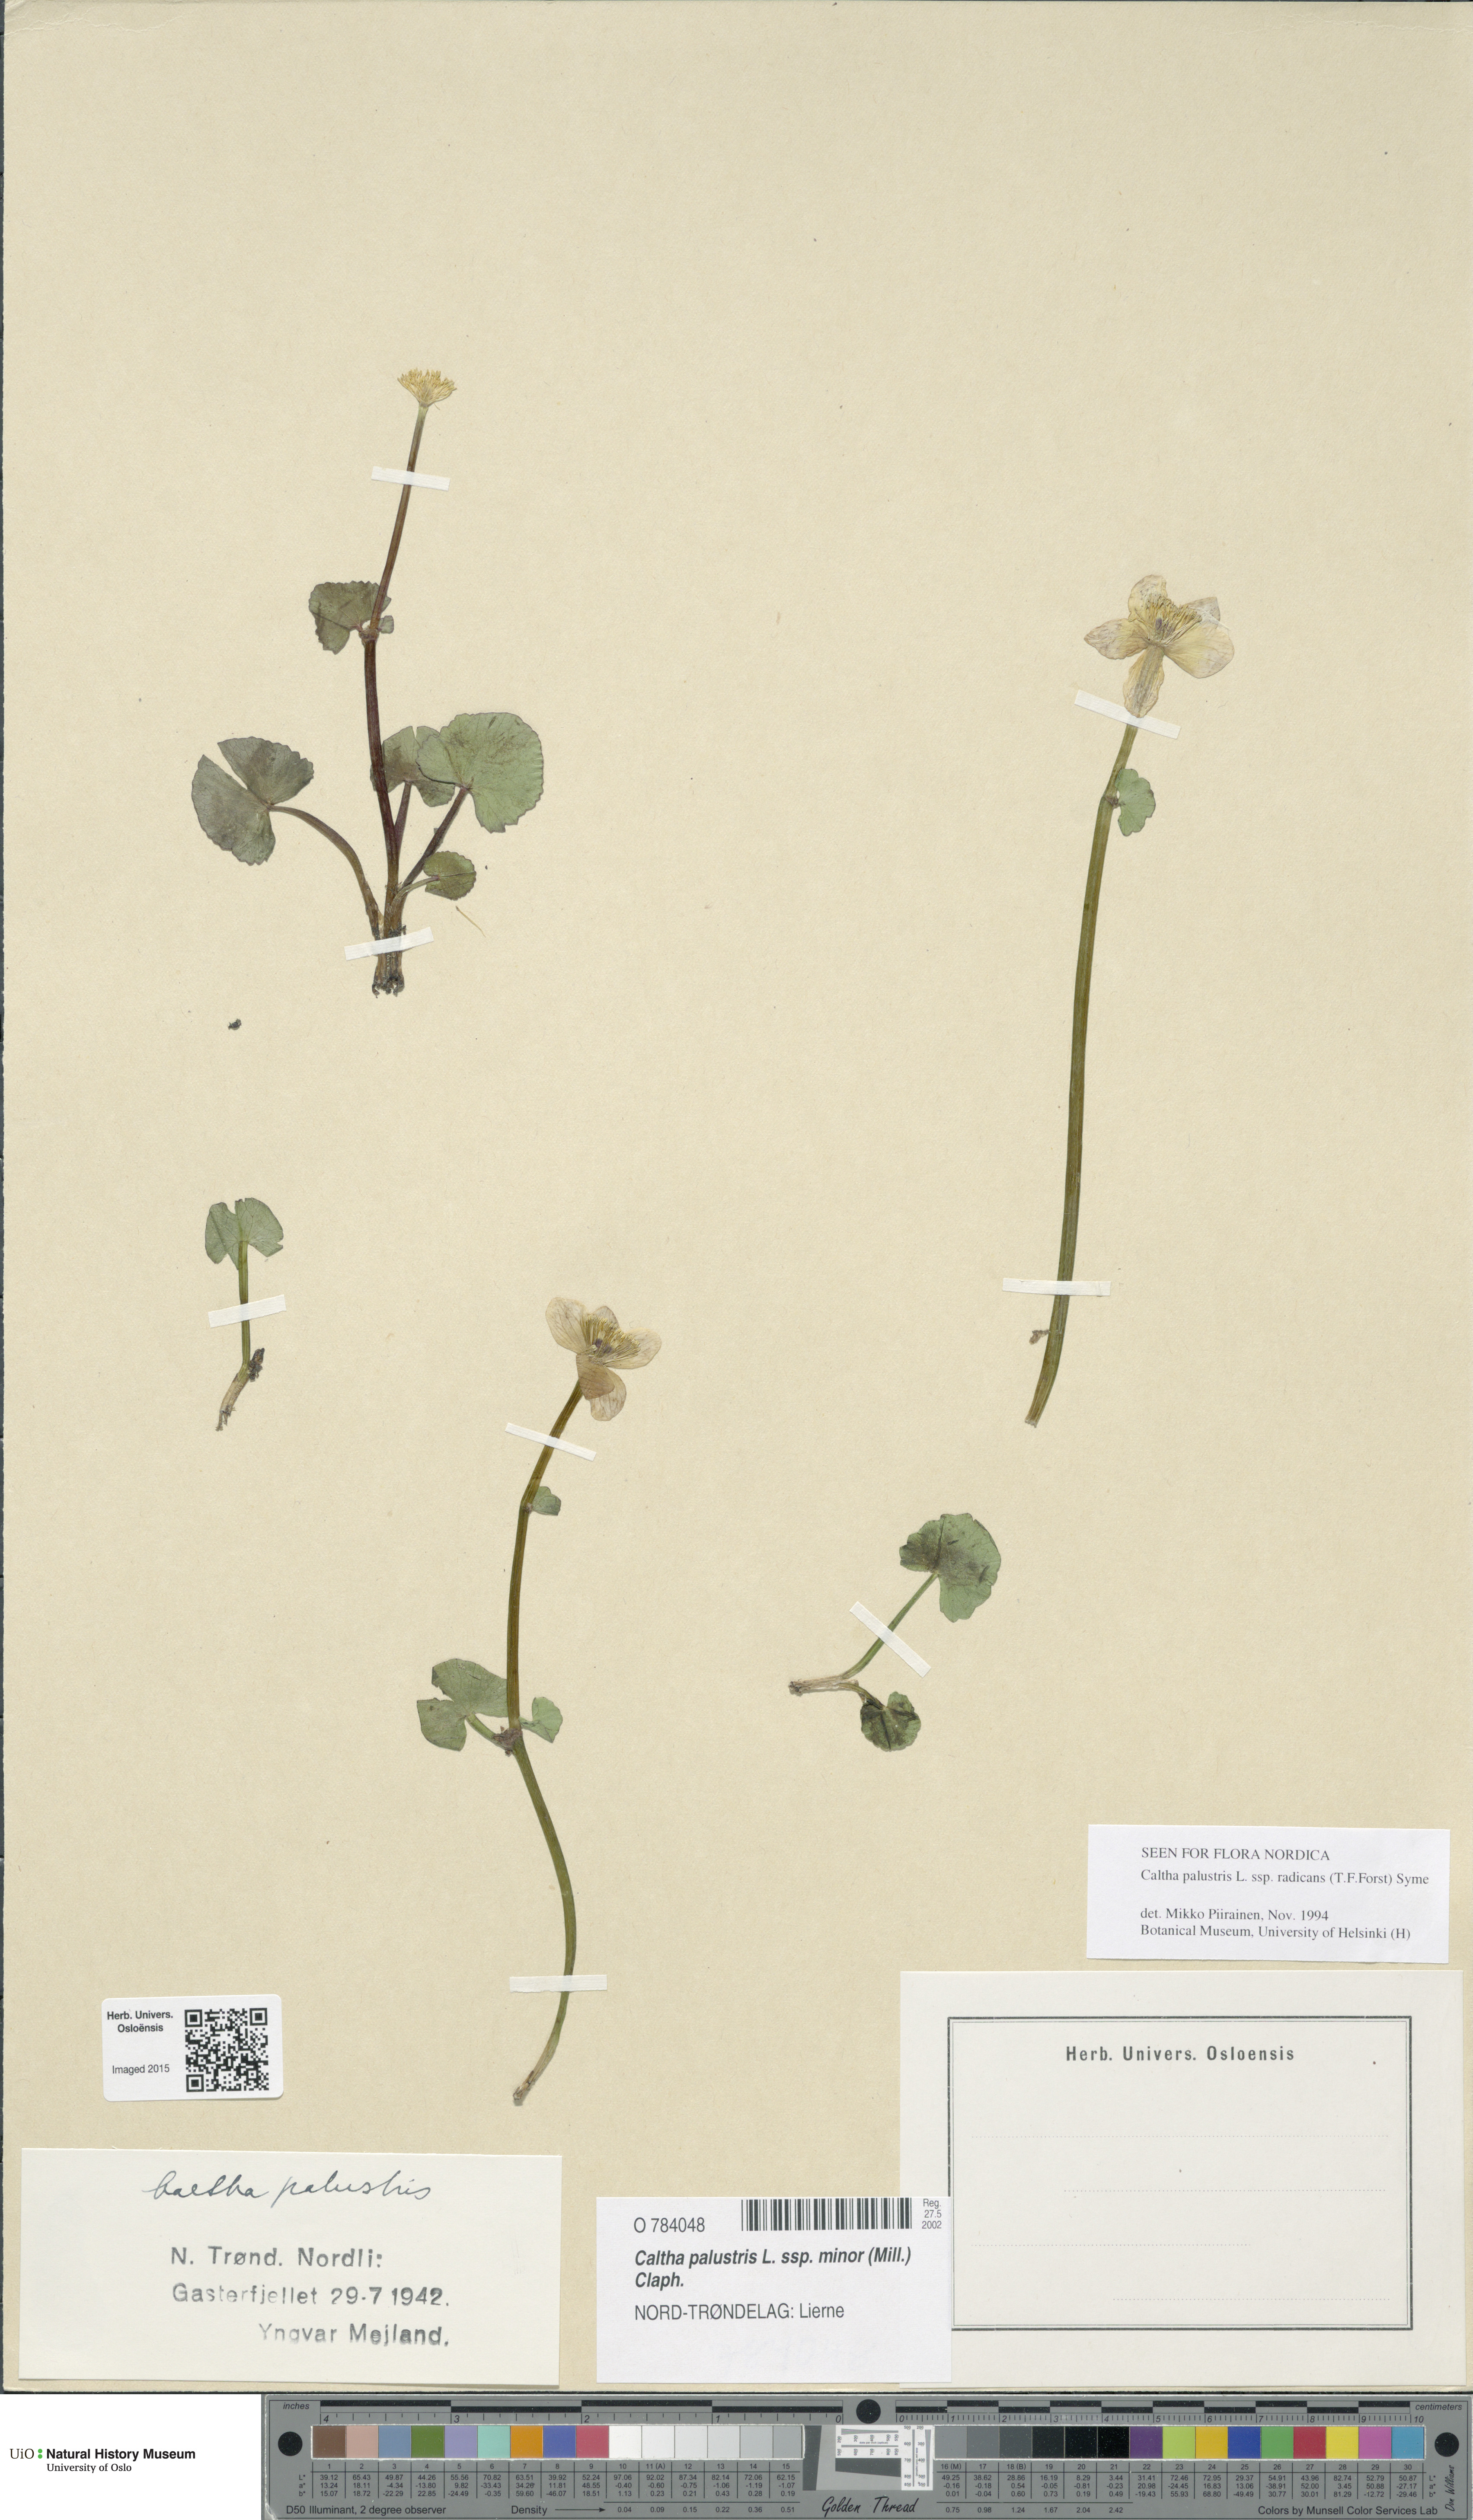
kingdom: Plantae
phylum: Tracheophyta
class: Magnoliopsida
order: Ranunculales
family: Ranunculaceae
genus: Caltha
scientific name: Caltha palustris
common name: Marsh marigold
